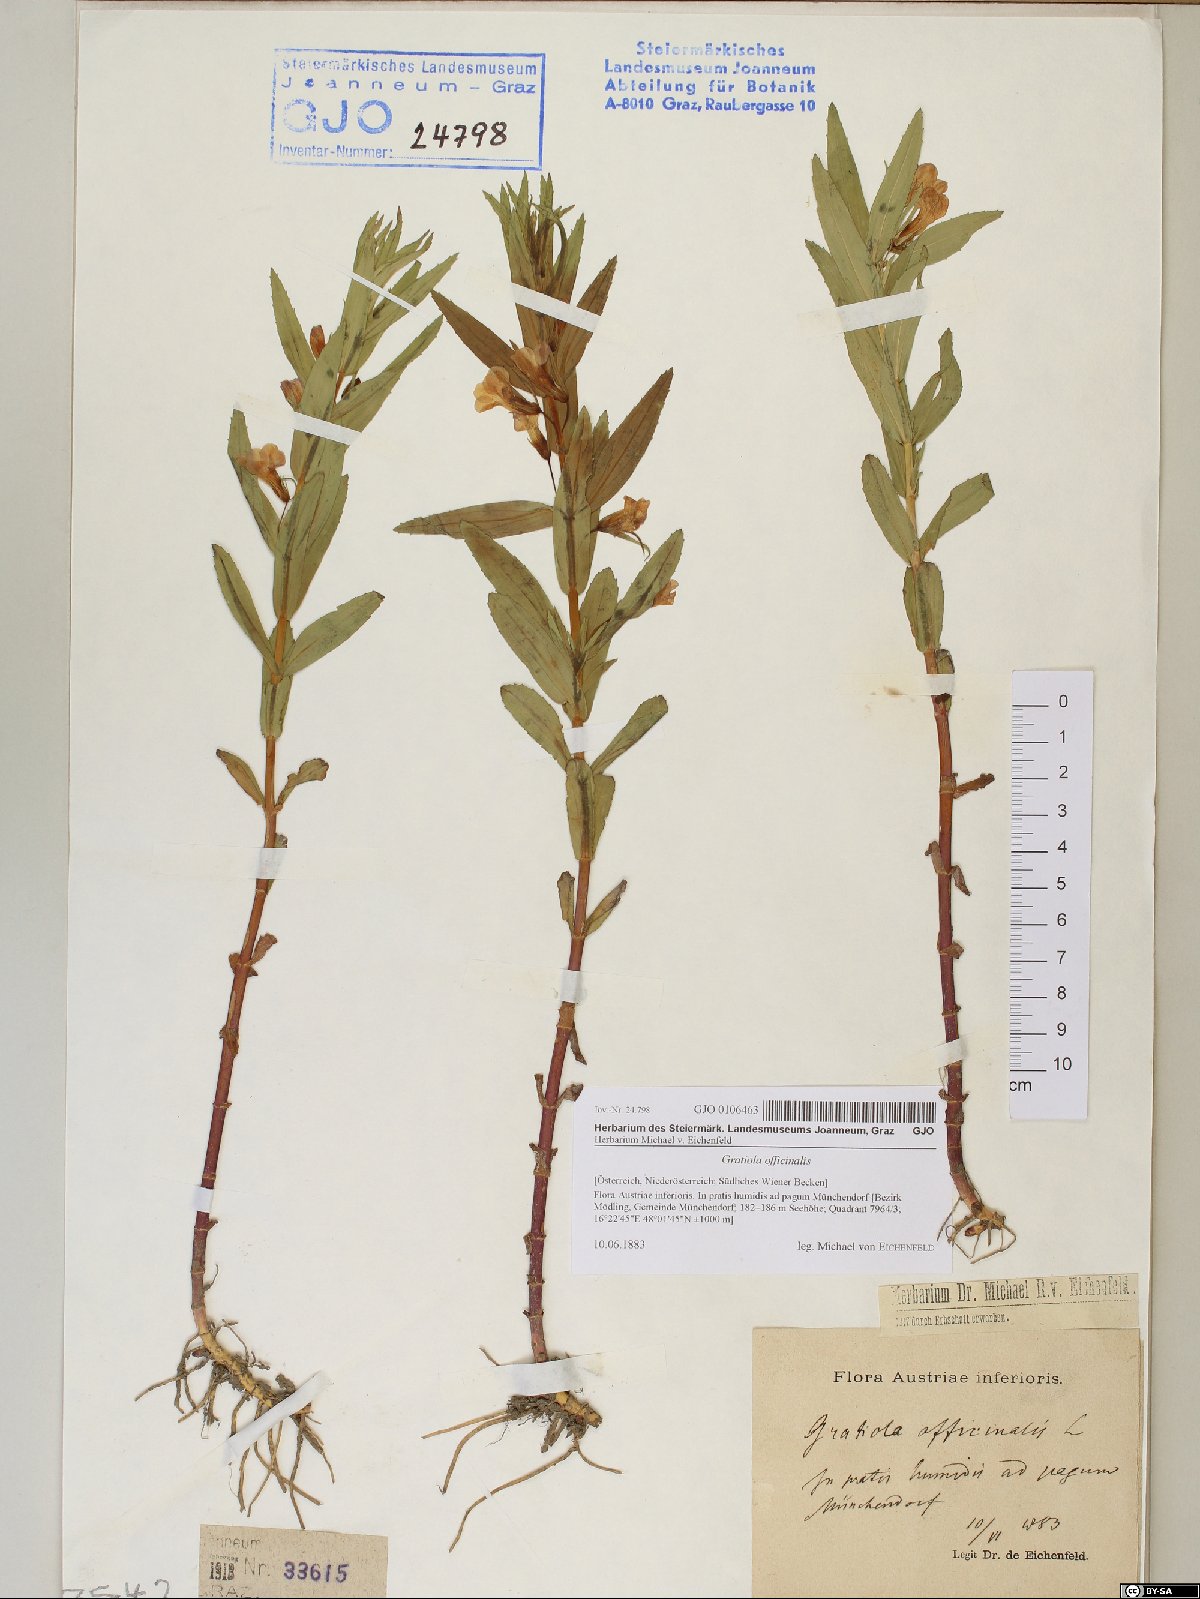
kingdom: Plantae
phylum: Tracheophyta
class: Magnoliopsida
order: Lamiales
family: Plantaginaceae
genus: Gratiola
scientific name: Gratiola officinalis
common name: Gratiola
